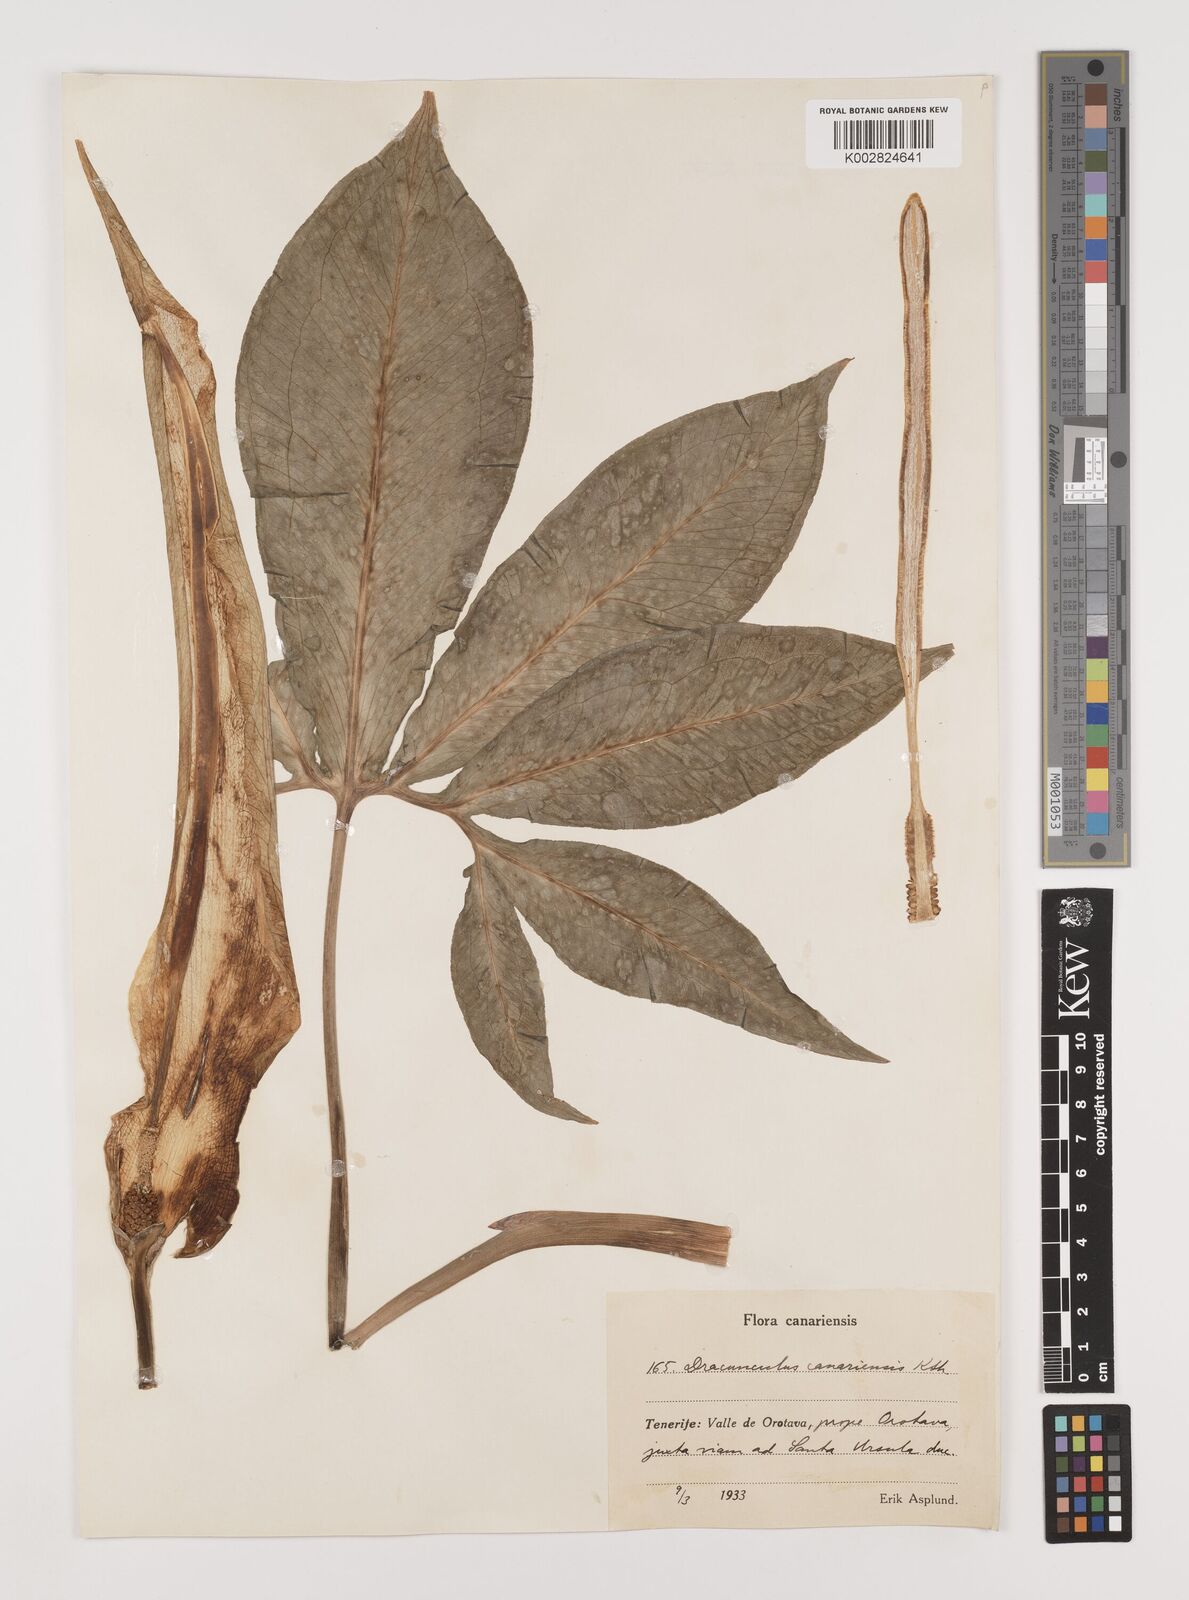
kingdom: Plantae
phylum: Tracheophyta
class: Liliopsida
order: Alismatales
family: Araceae
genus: Dracunculus
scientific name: Dracunculus canariensis
